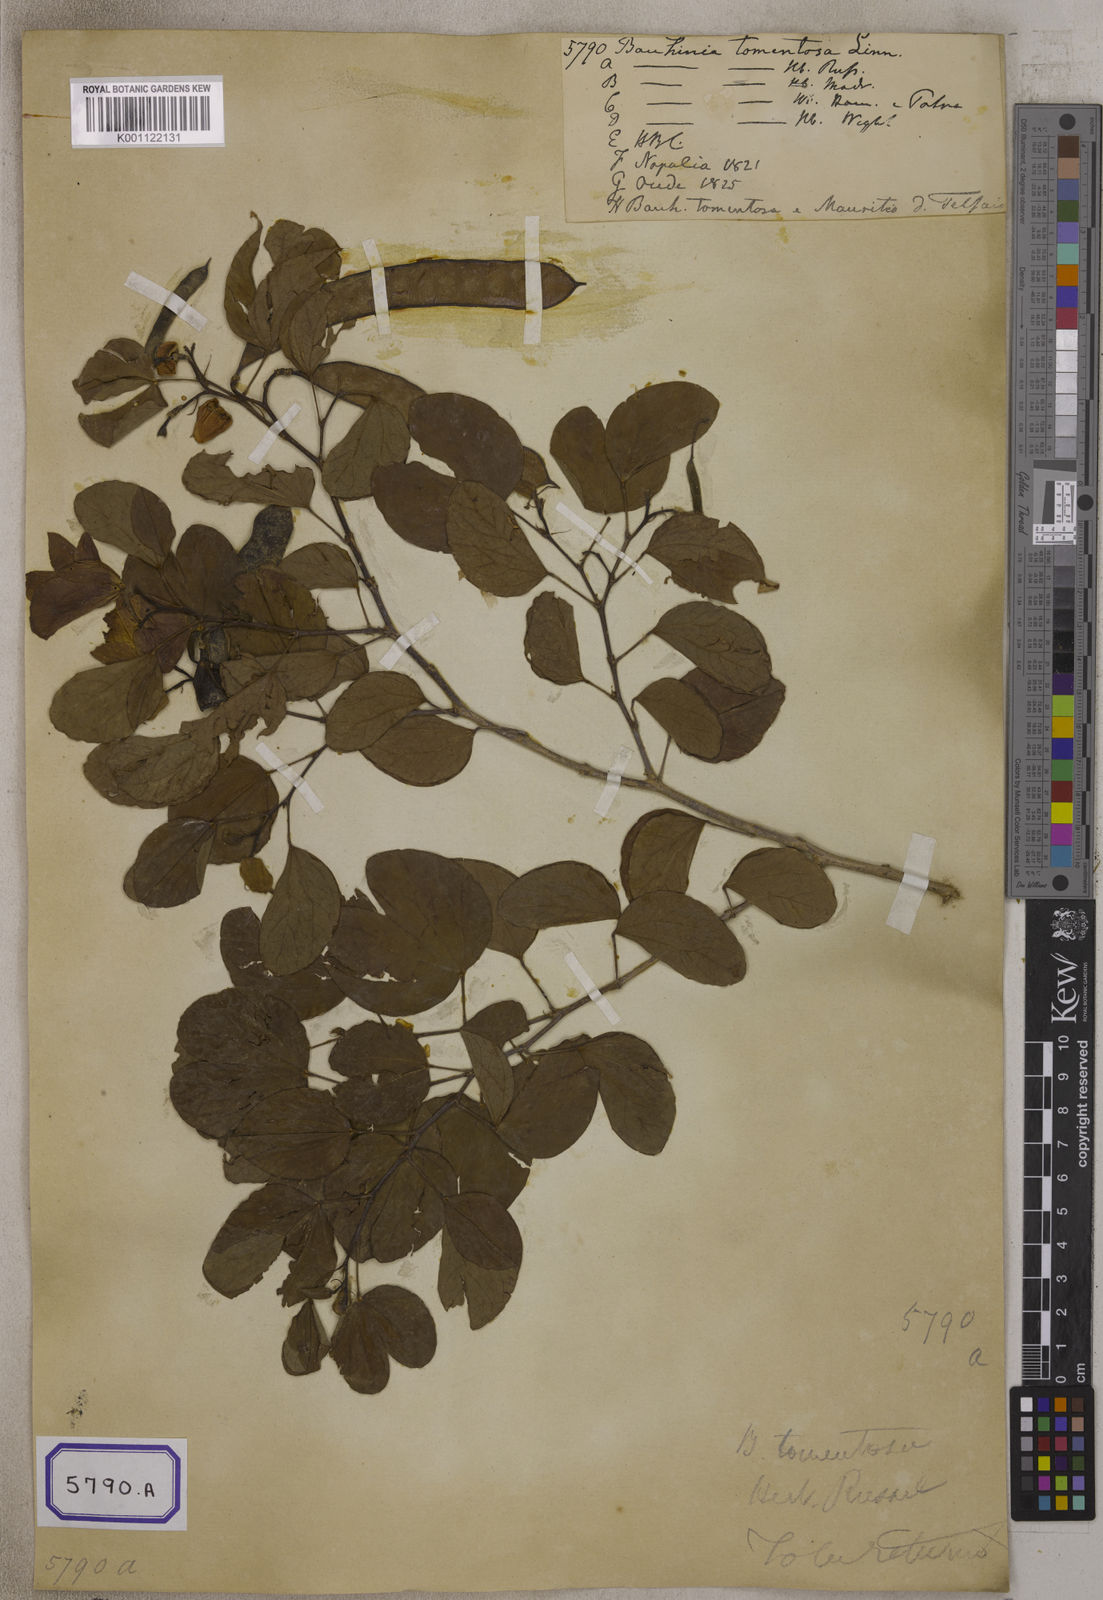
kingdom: Plantae
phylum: Tracheophyta
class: Magnoliopsida
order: Fabales
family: Fabaceae
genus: Bauhinia
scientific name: Bauhinia tomentosa
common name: Bell bauhinia
